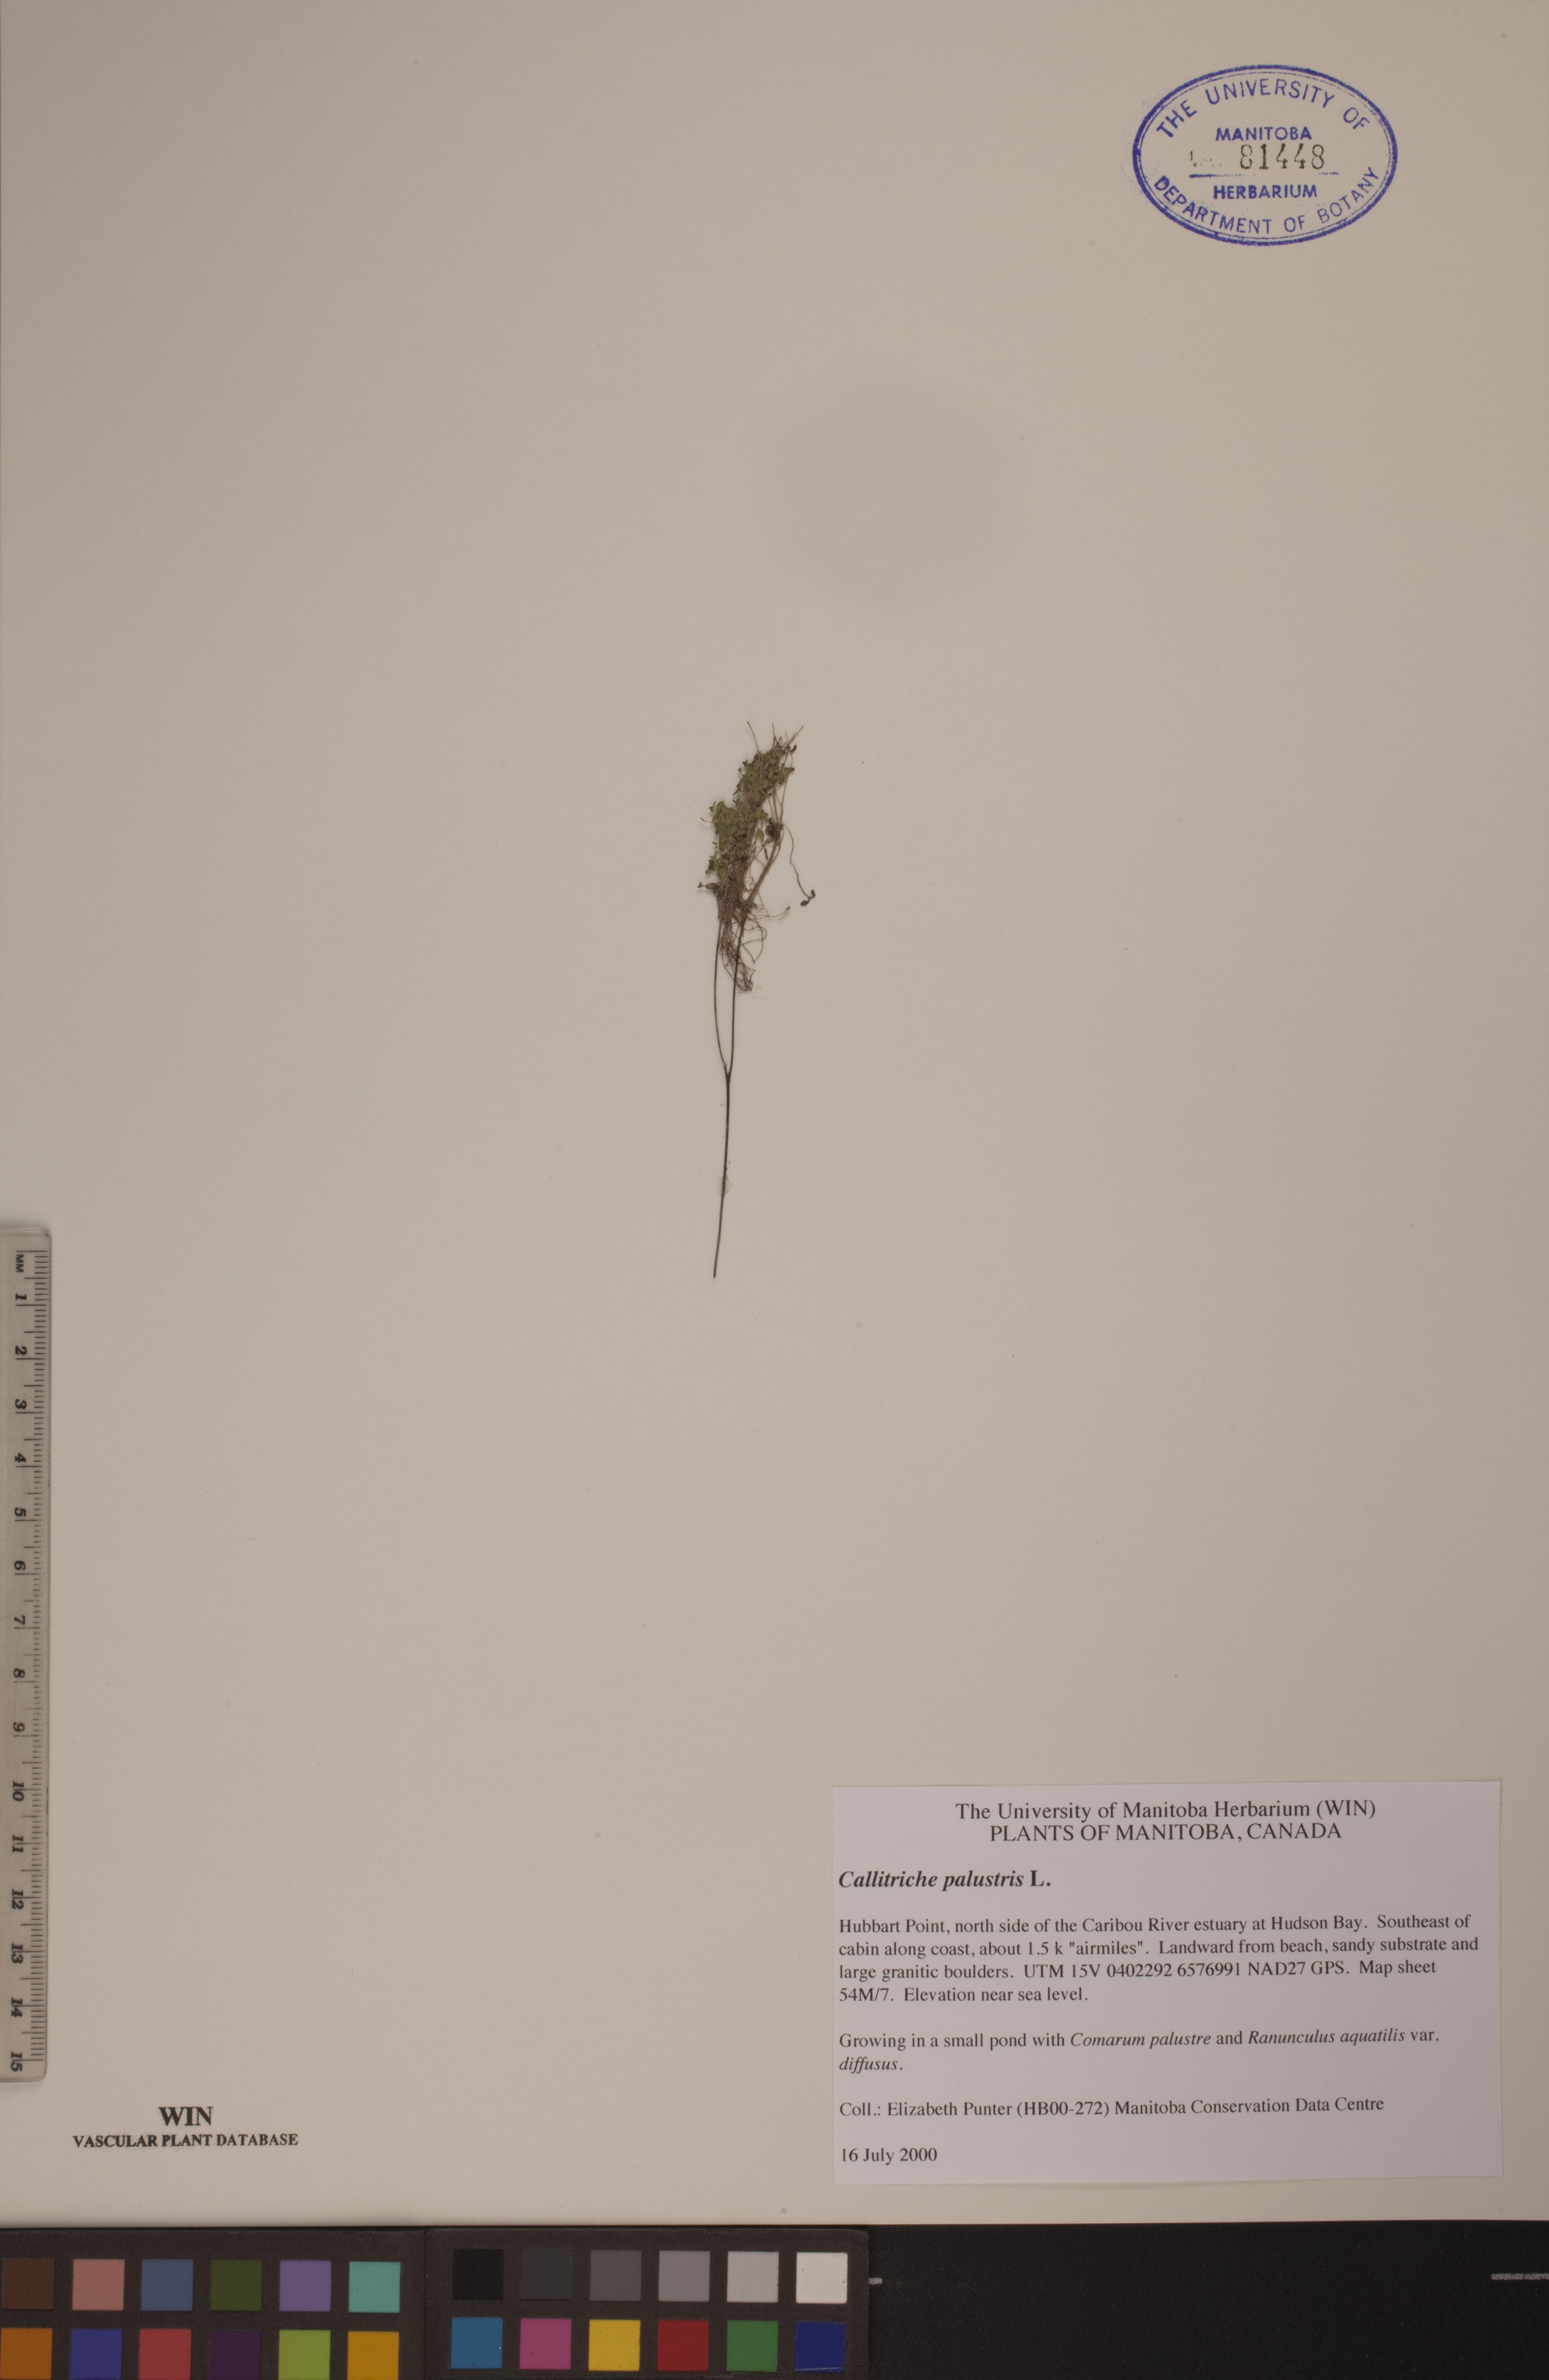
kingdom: Plantae
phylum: Tracheophyta
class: Magnoliopsida
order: Lamiales
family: Plantaginaceae
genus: Callitriche
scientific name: Callitriche palustris
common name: Spring water-starwort
